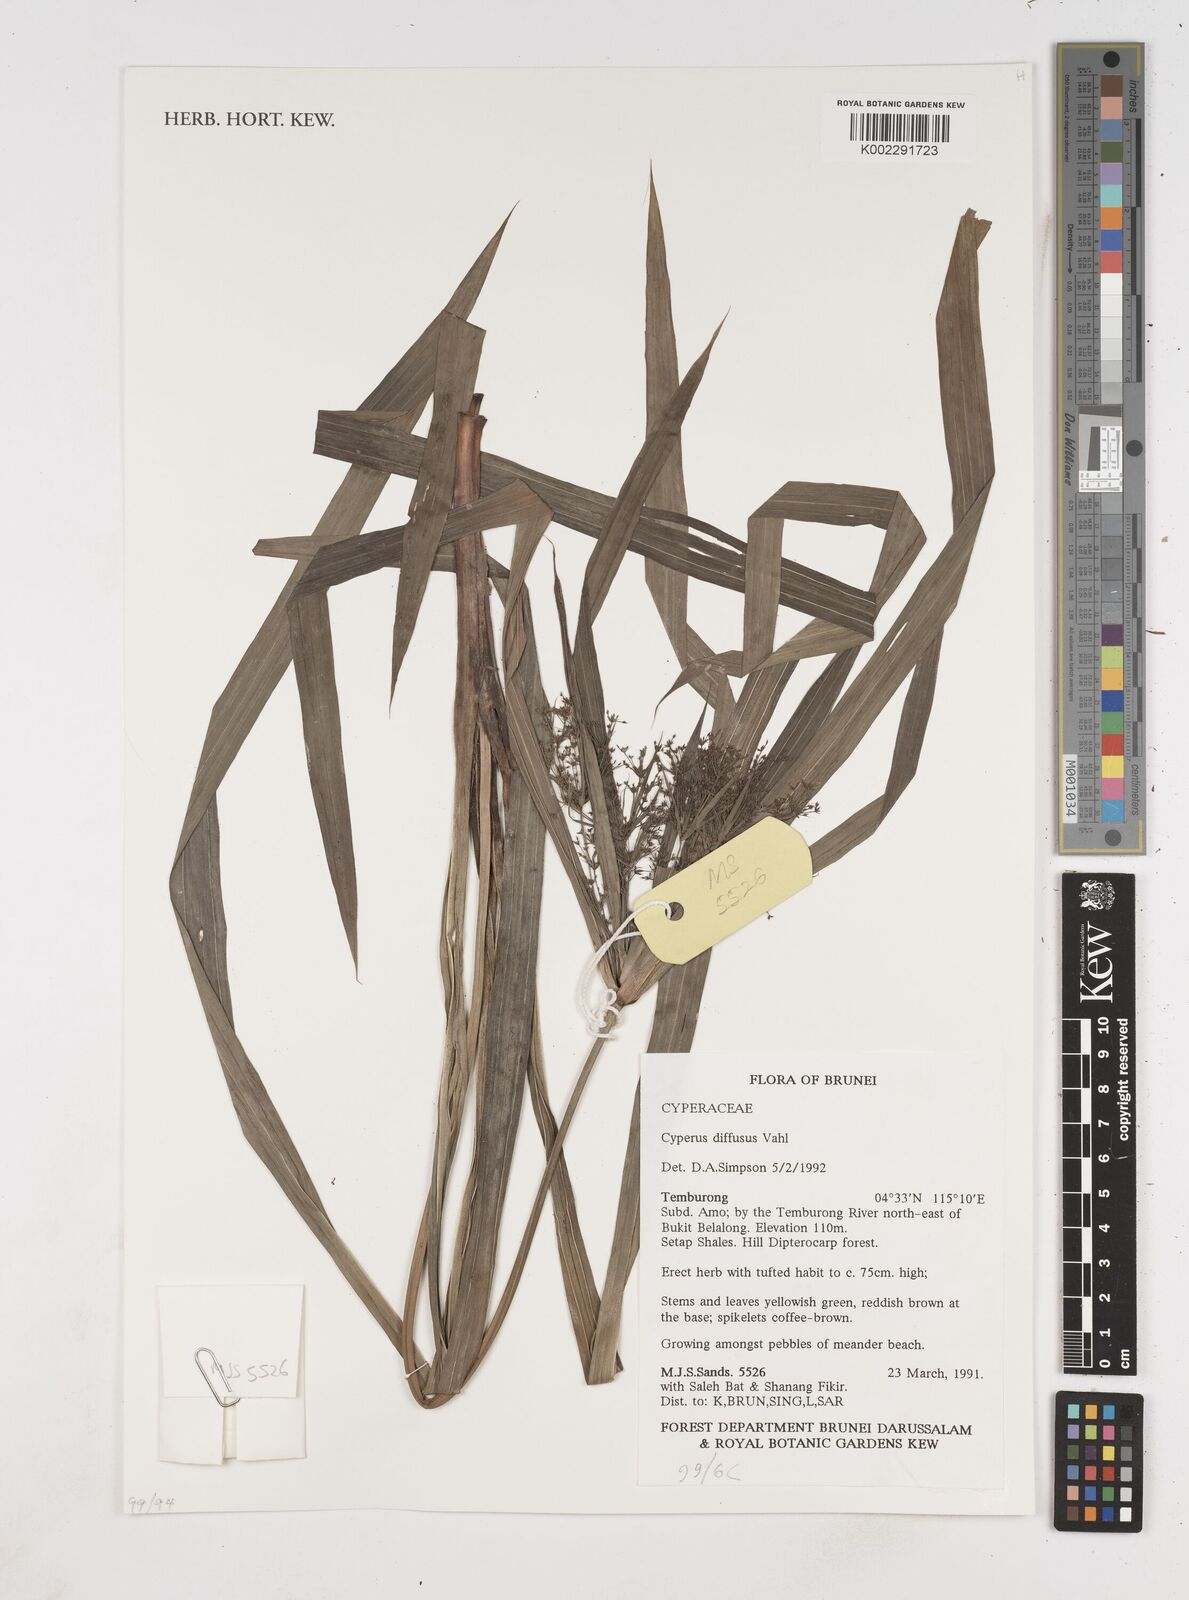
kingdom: Plantae
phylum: Tracheophyta
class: Liliopsida
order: Poales
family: Cyperaceae
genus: Cyperus
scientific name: Cyperus diffusus
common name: Dwarf umbrella grass
